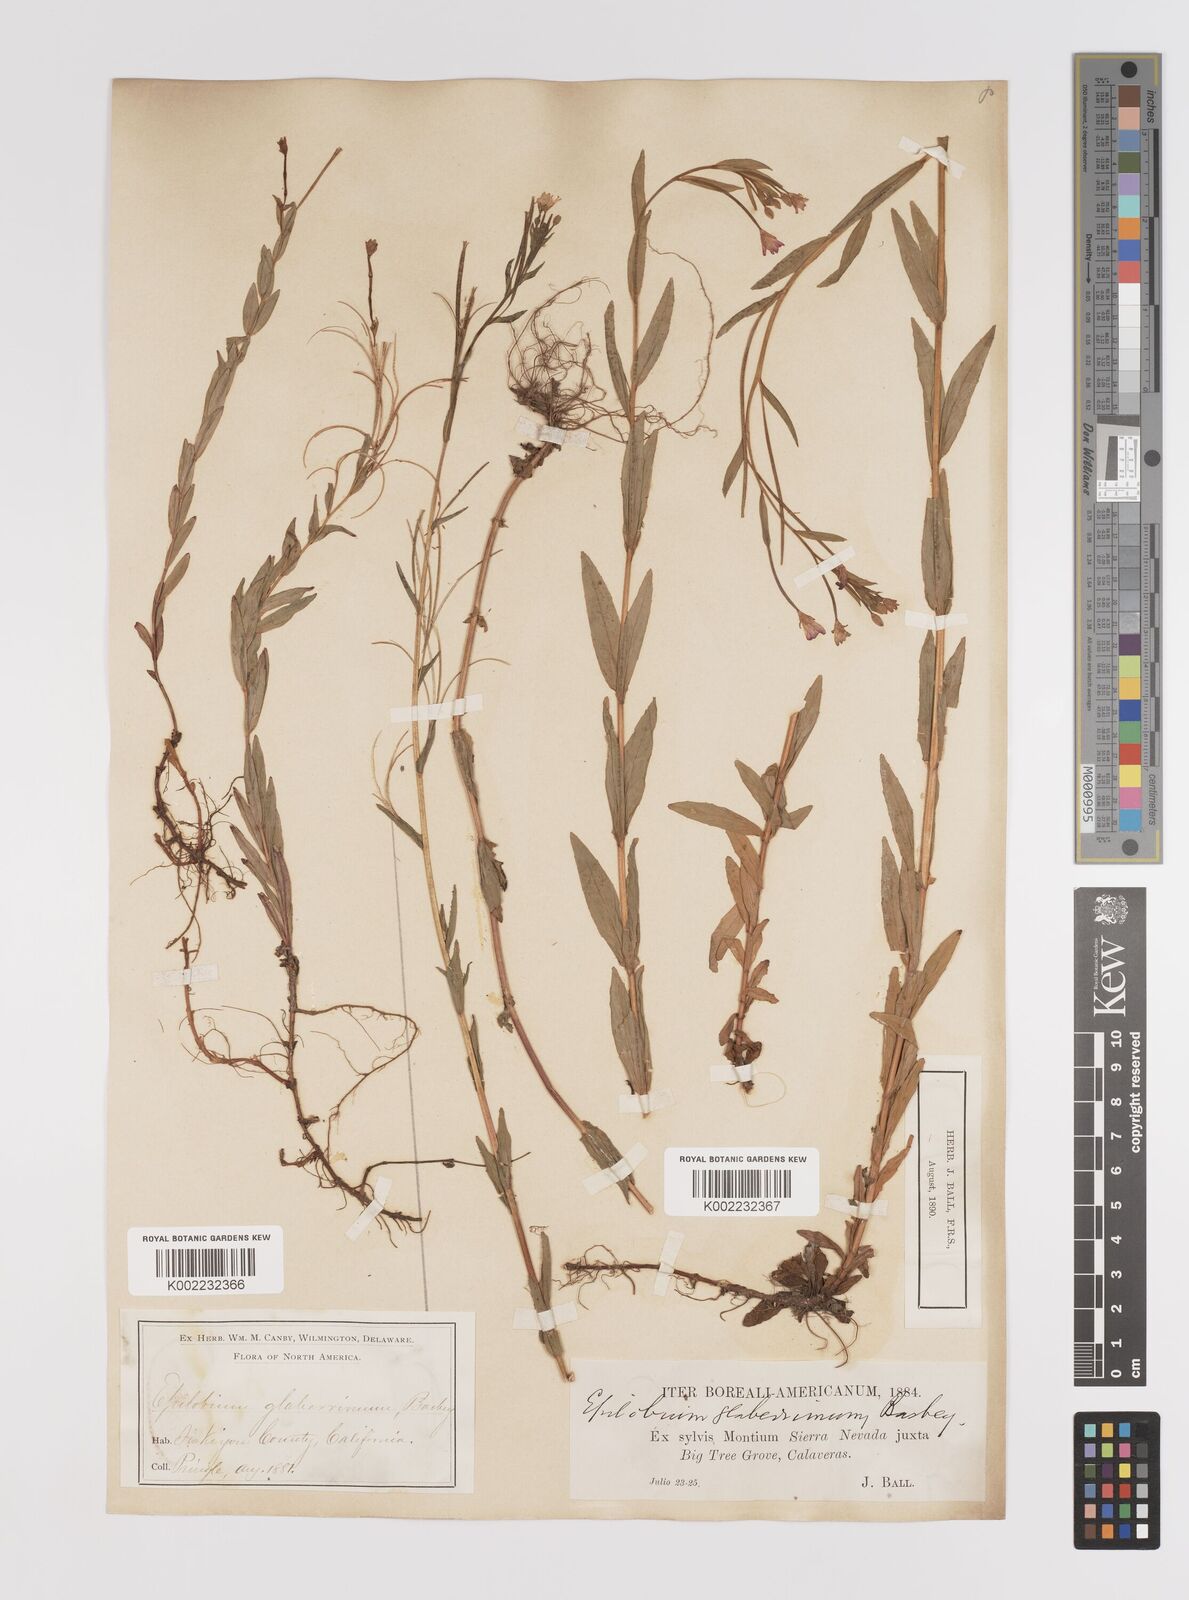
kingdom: Plantae
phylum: Tracheophyta
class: Magnoliopsida
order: Myrtales
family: Onagraceae
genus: Epilobium
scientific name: Epilobium glaberrimum
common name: Glaucous willowherb
